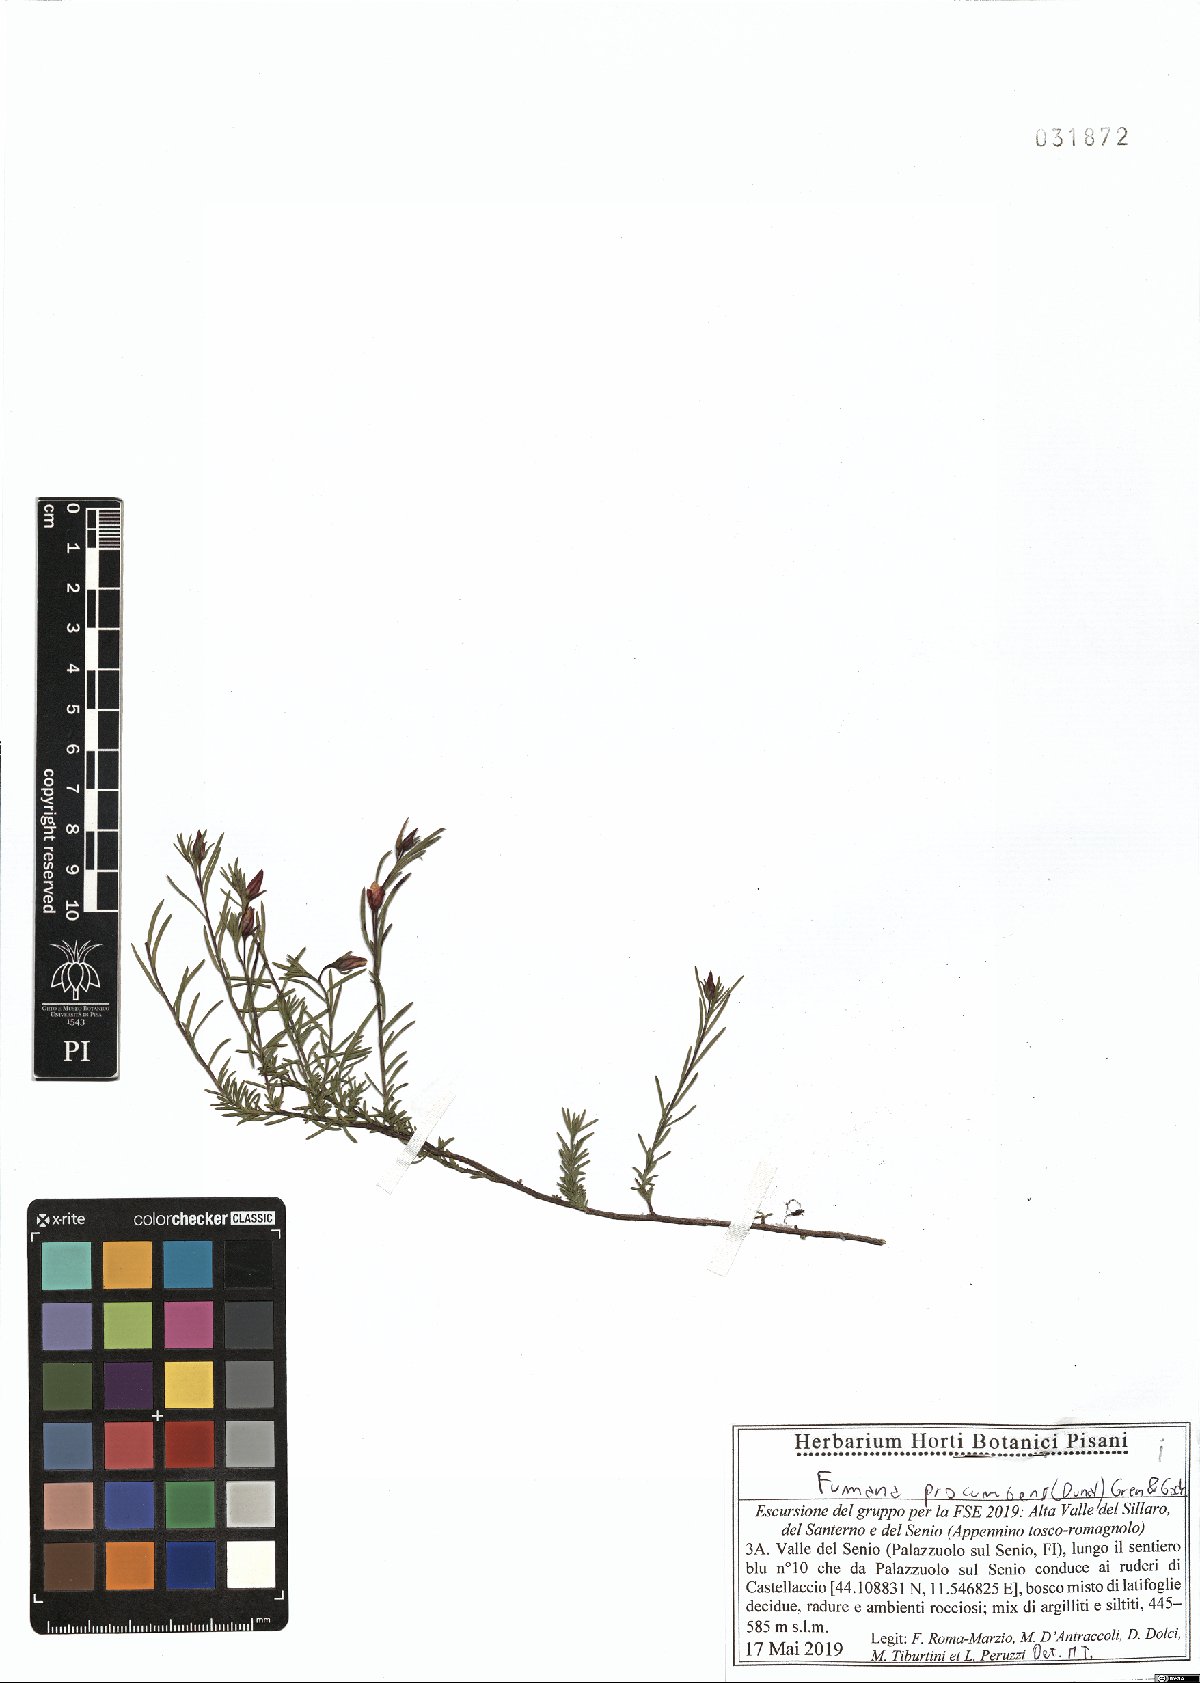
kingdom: Plantae
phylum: Tracheophyta
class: Magnoliopsida
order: Malvales
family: Cistaceae
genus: Fumana
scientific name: Fumana procumbens
